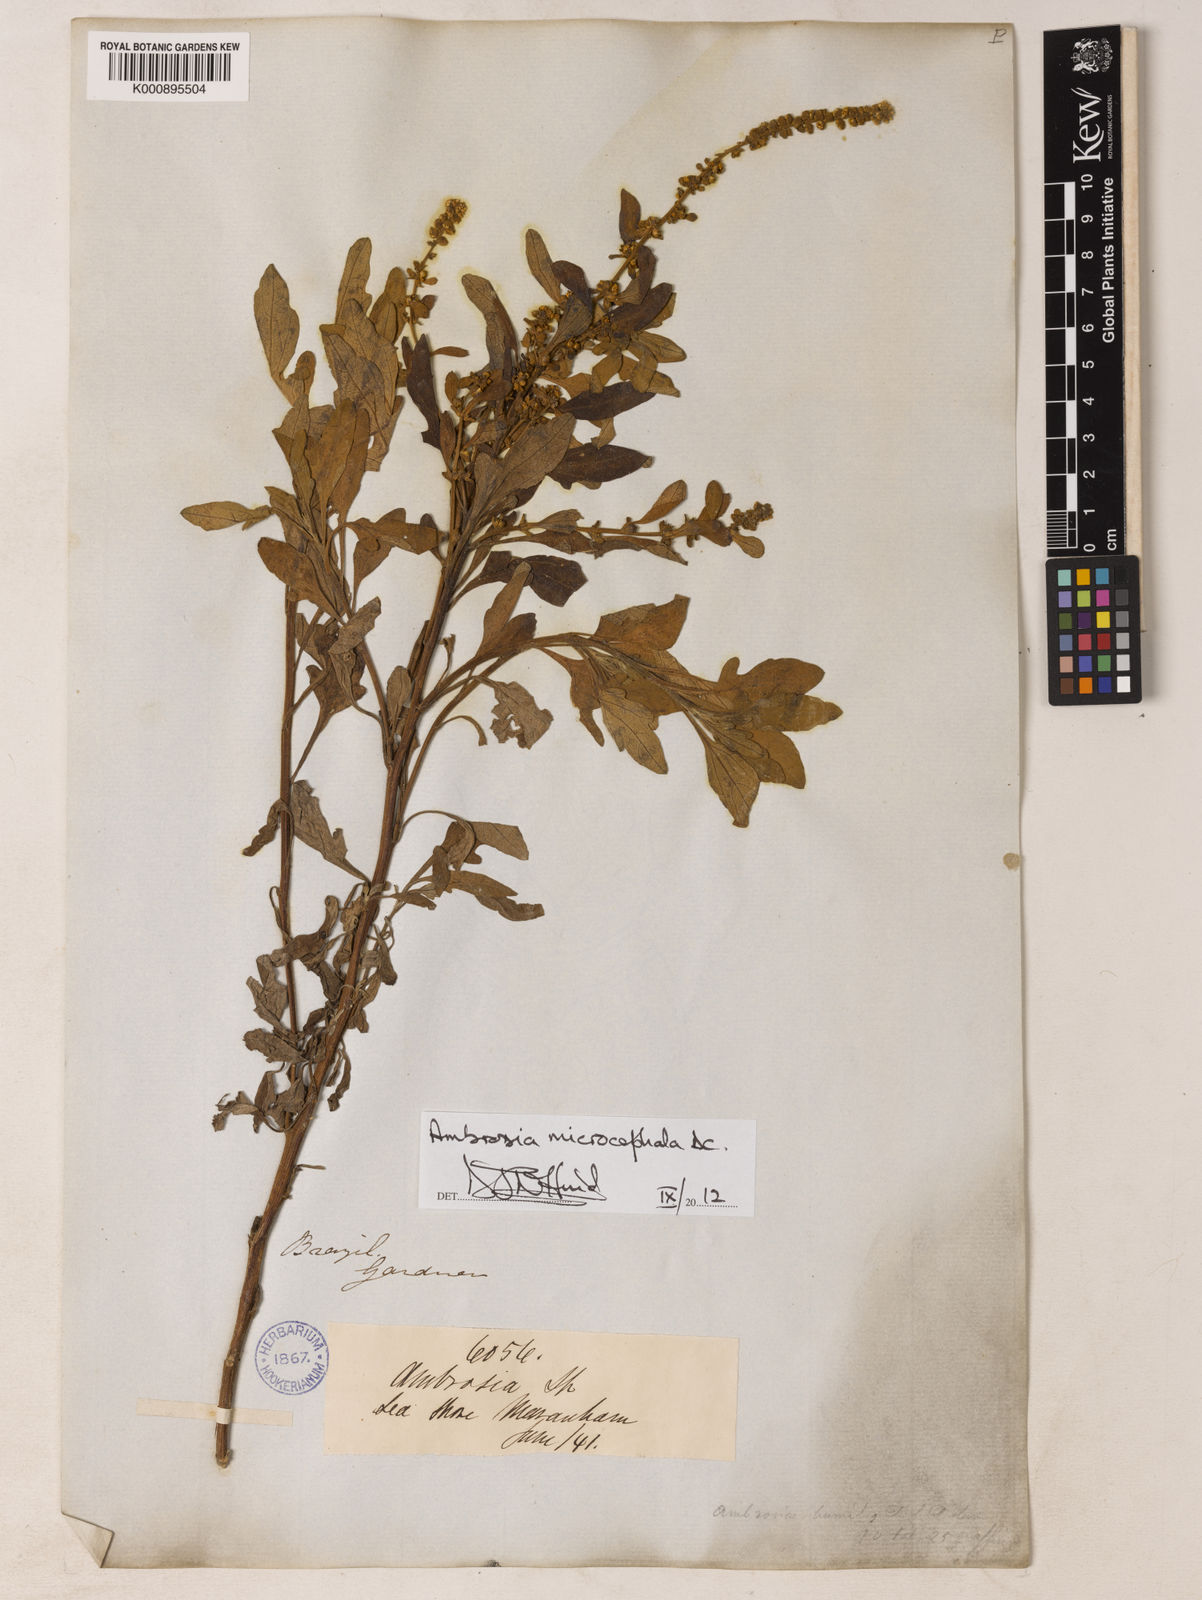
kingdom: Plantae
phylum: Tracheophyta
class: Magnoliopsida
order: Asterales
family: Asteraceae
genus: Ambrosia
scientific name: Ambrosia microcephala
